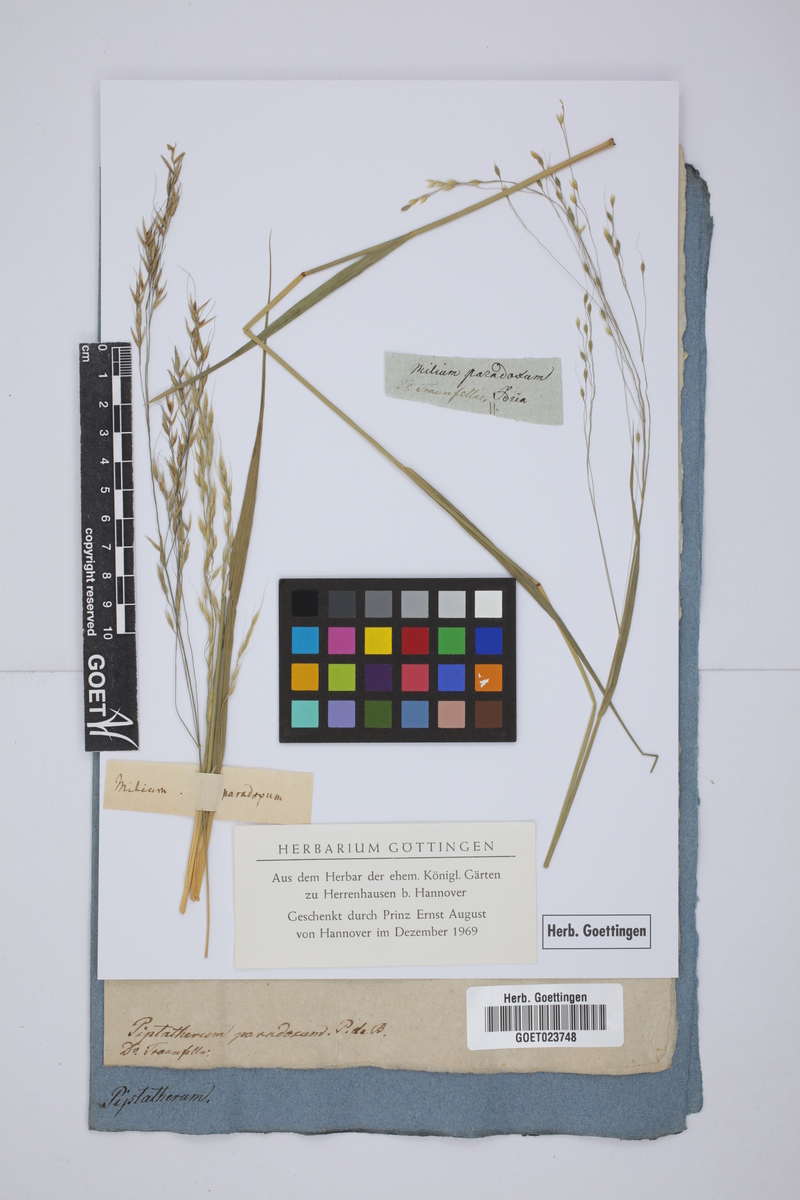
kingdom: Plantae
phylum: Tracheophyta
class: Liliopsida
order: Poales
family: Poaceae
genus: Achnatherum
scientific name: Achnatherum paradoxum
